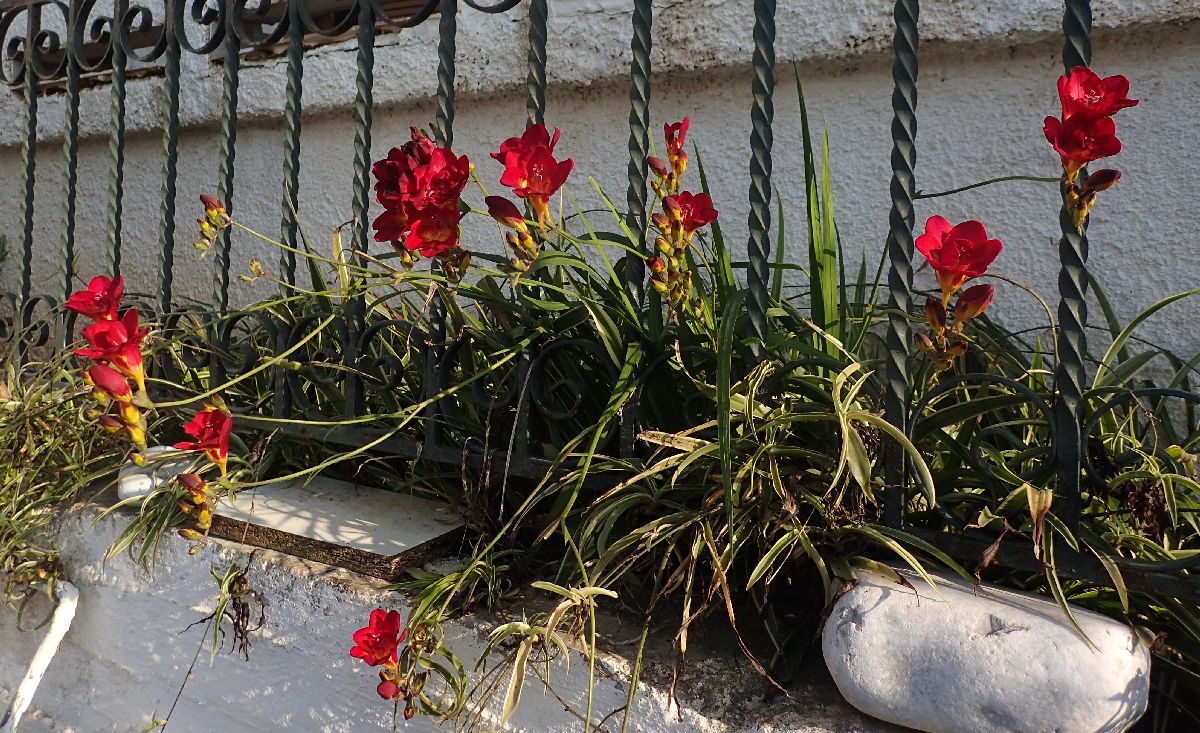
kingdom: Plantae
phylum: Tracheophyta
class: Liliopsida
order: Asparagales
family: Iridaceae
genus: Freesia
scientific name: Freesia
